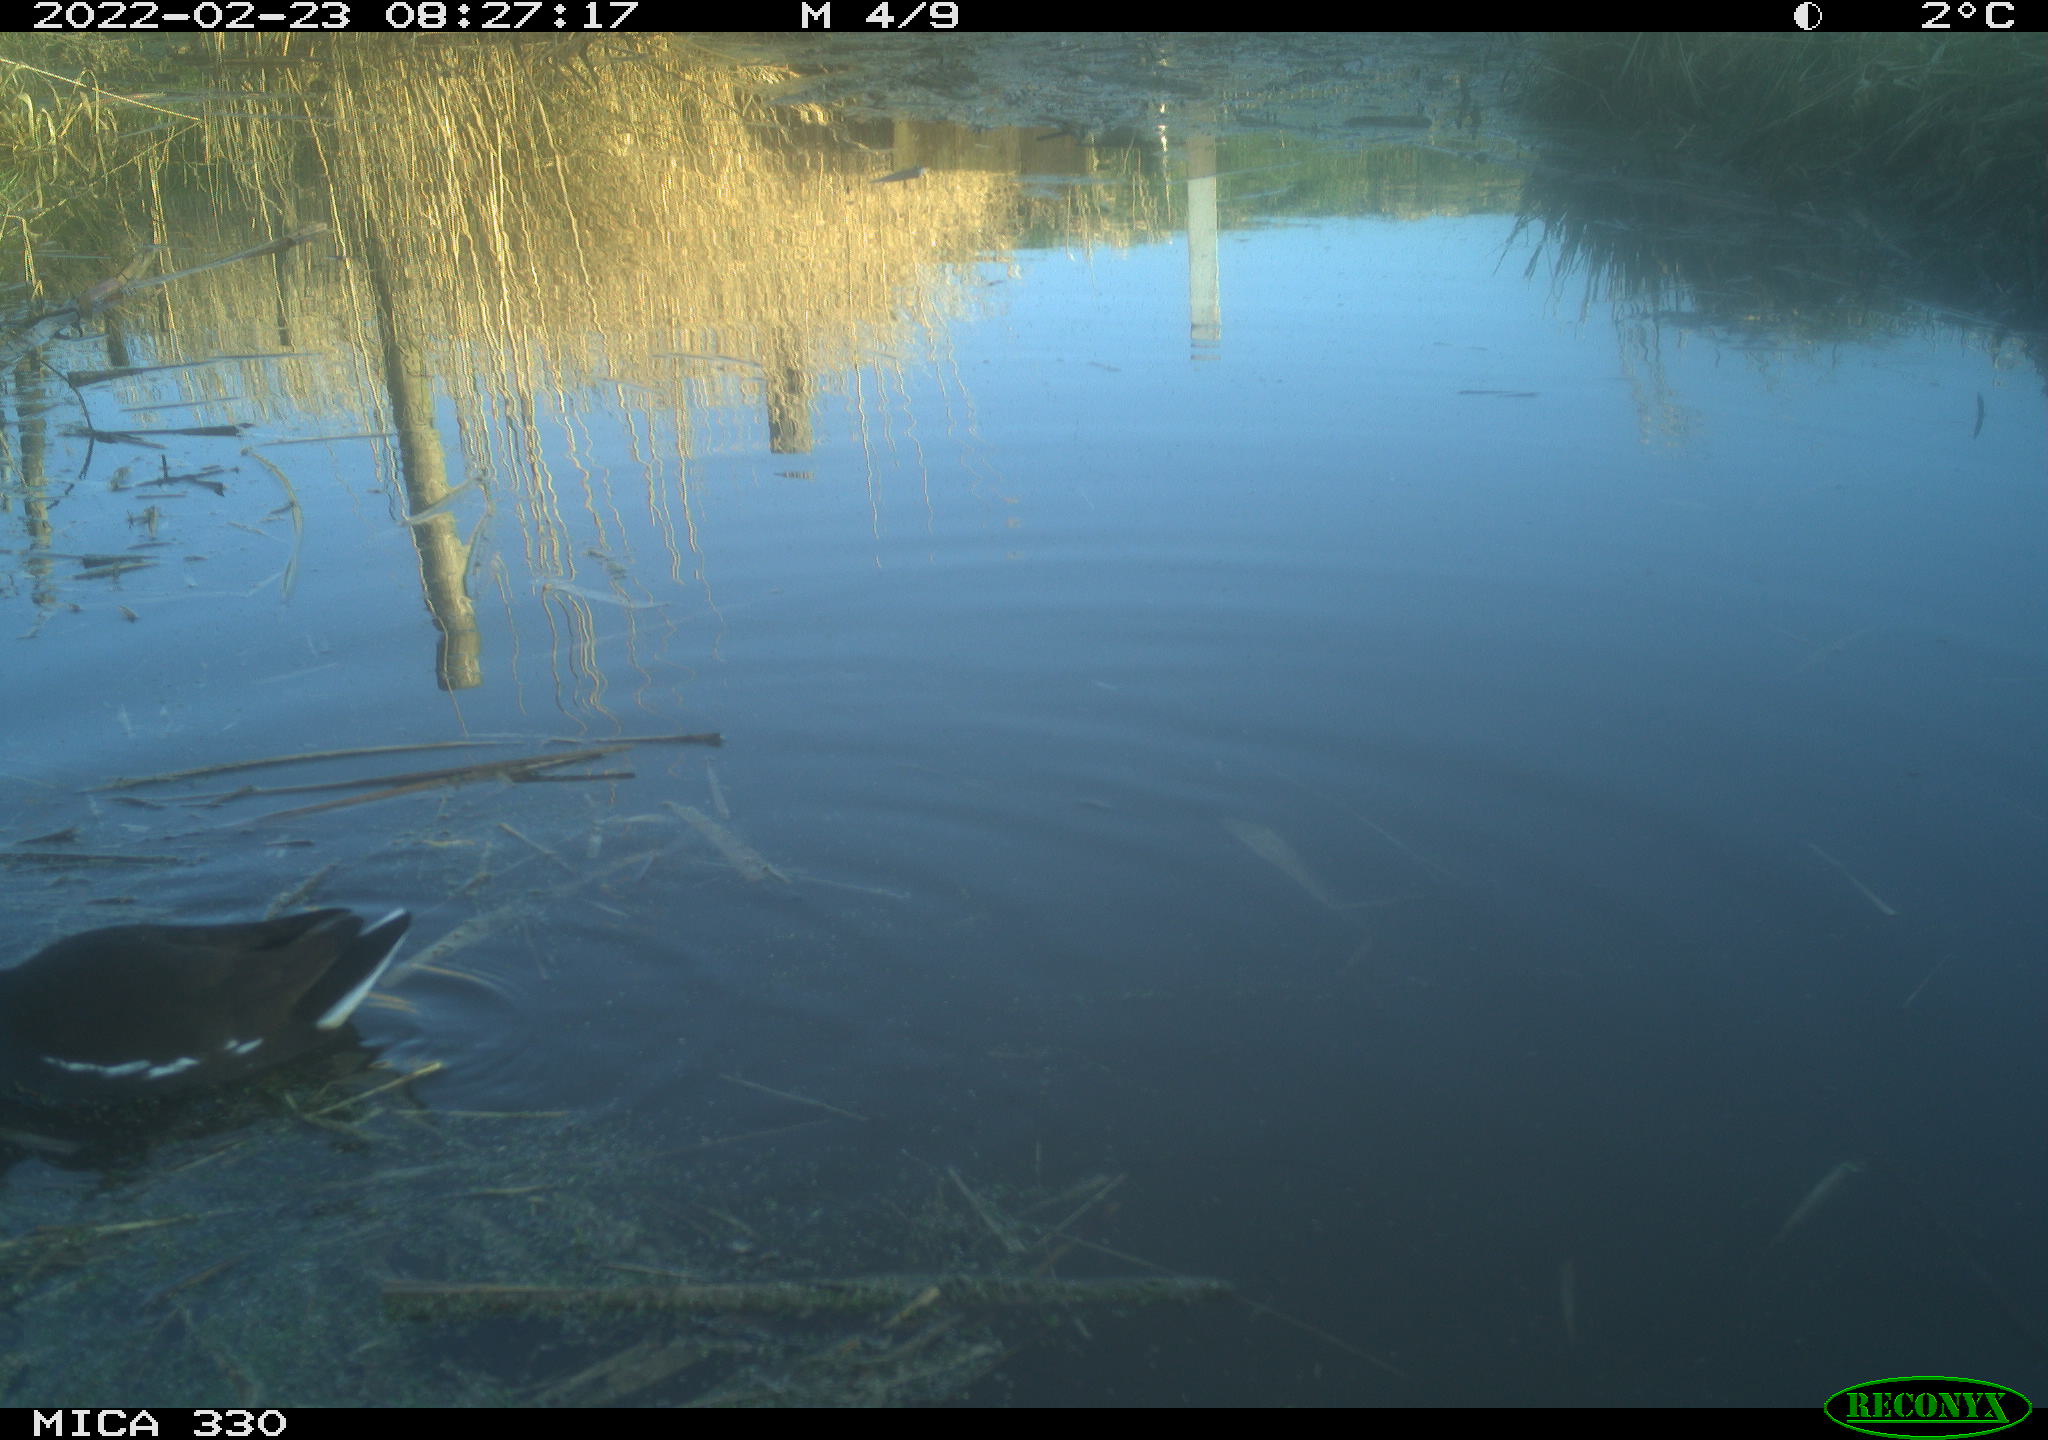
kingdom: Animalia
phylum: Chordata
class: Aves
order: Gruiformes
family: Rallidae
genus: Gallinula
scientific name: Gallinula chloropus
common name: Common moorhen
